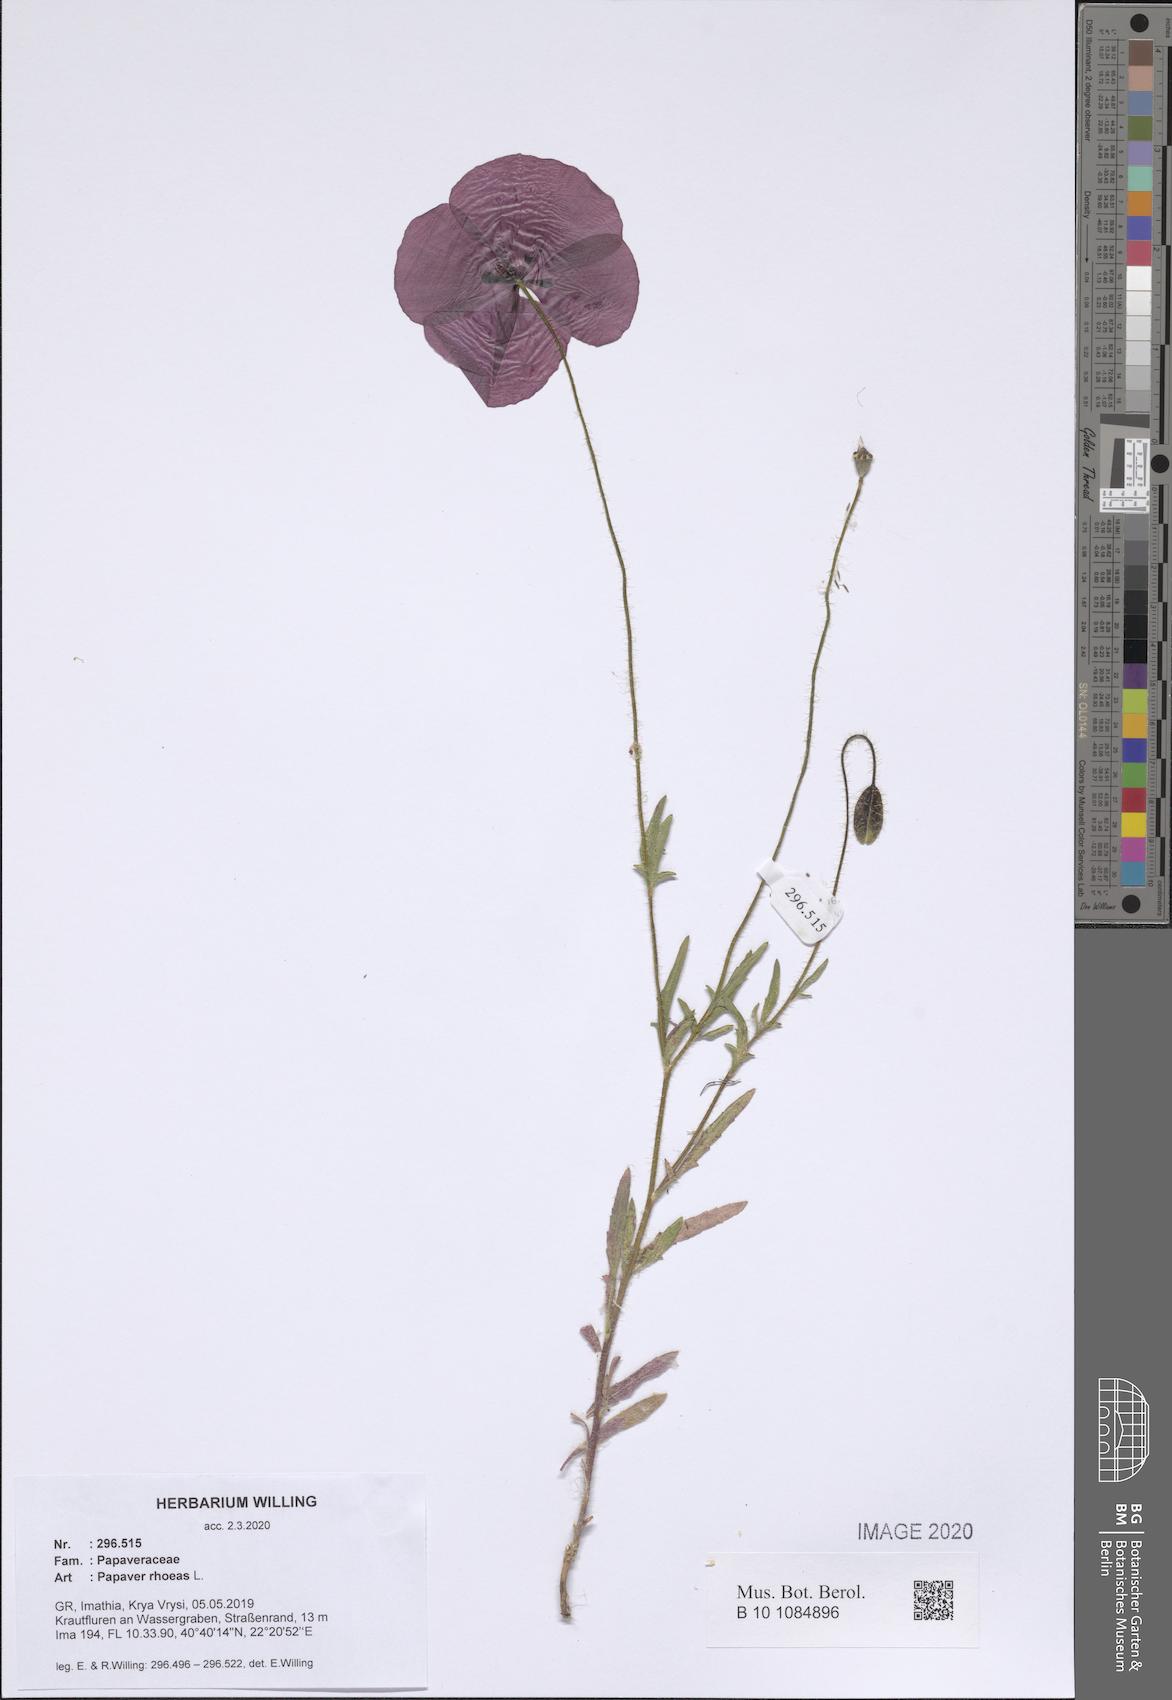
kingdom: Plantae
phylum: Tracheophyta
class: Magnoliopsida
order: Ranunculales
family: Papaveraceae
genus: Papaver
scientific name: Papaver rhoeas
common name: Corn poppy
